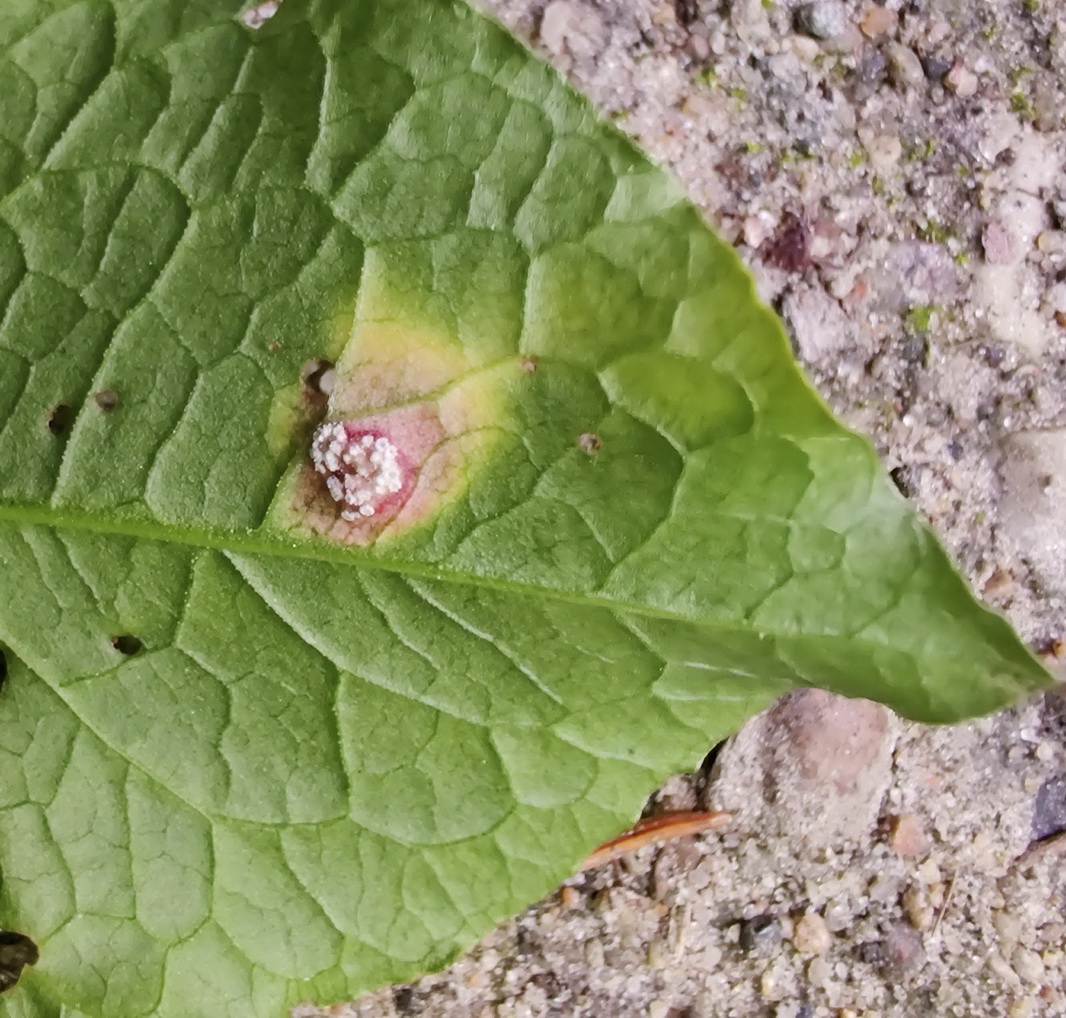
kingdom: Fungi
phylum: Basidiomycota
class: Pucciniomycetes
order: Pucciniales
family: Pucciniaceae
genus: Puccinia
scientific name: Puccinia phragmitis
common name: tagrør-tvecellerust
